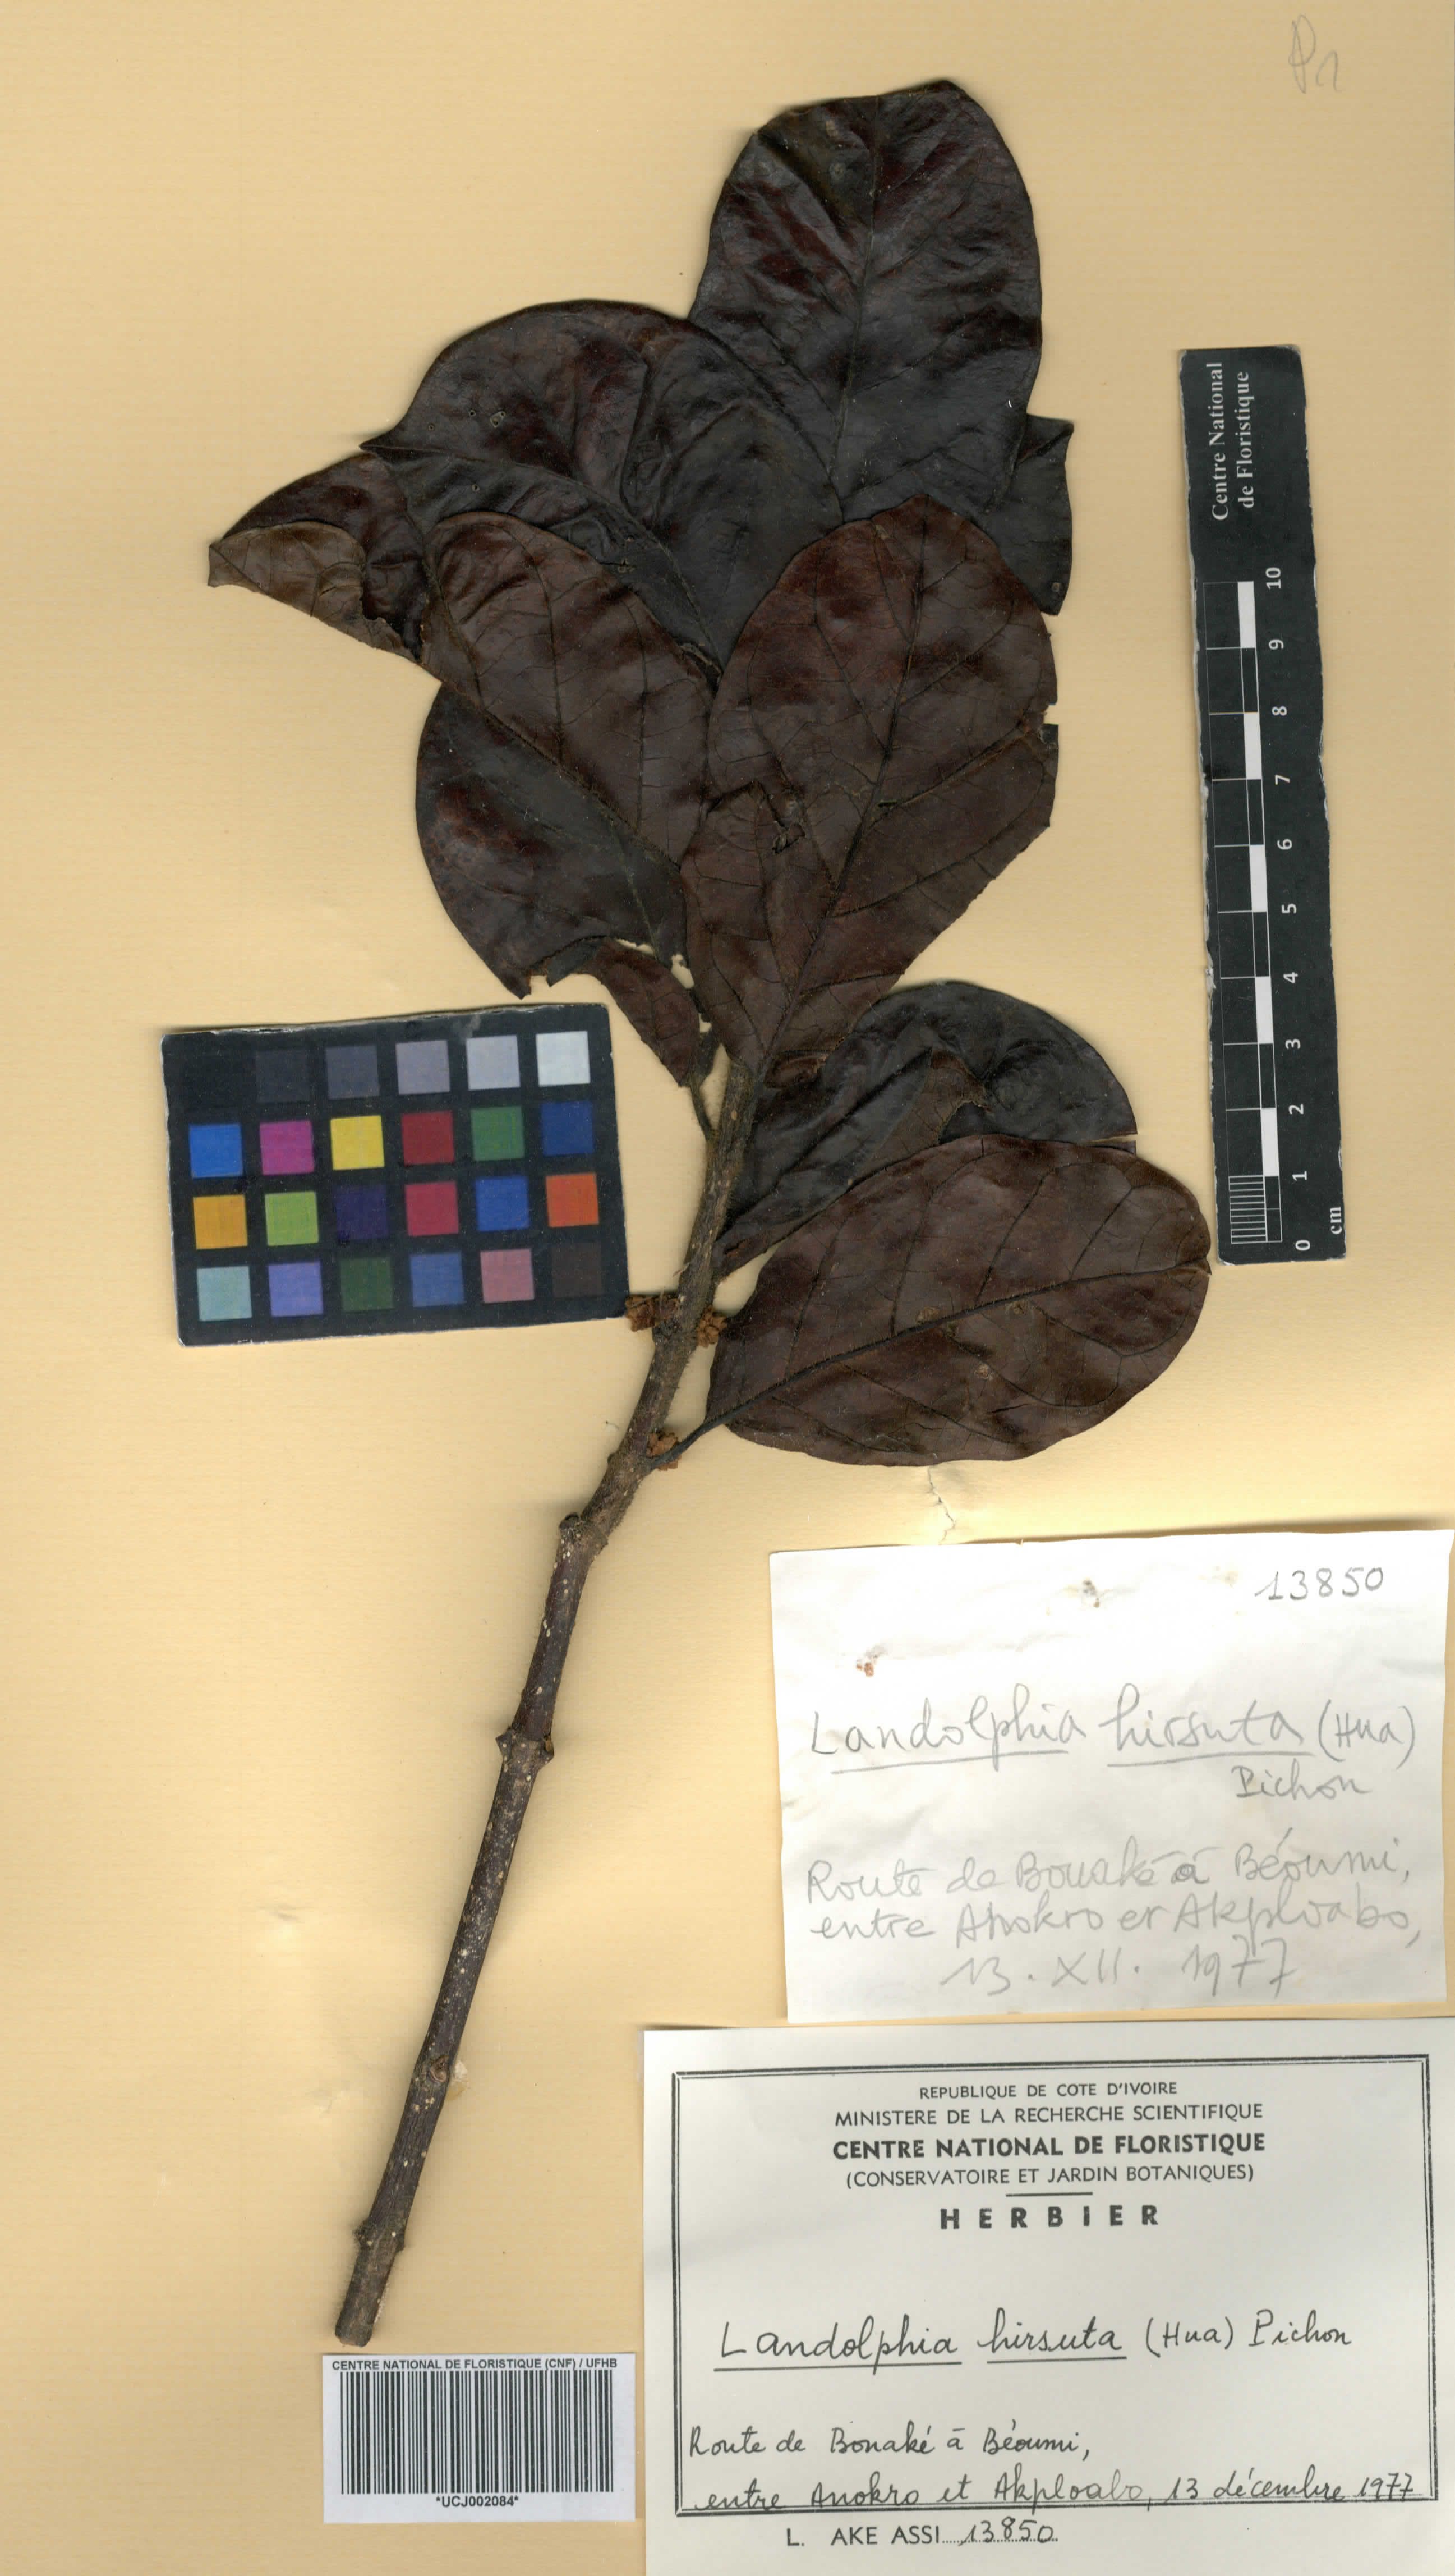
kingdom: Plantae
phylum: Tracheophyta
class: Magnoliopsida
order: Gentianales
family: Apocynaceae
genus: Landolphia
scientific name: Landolphia hirsuta
